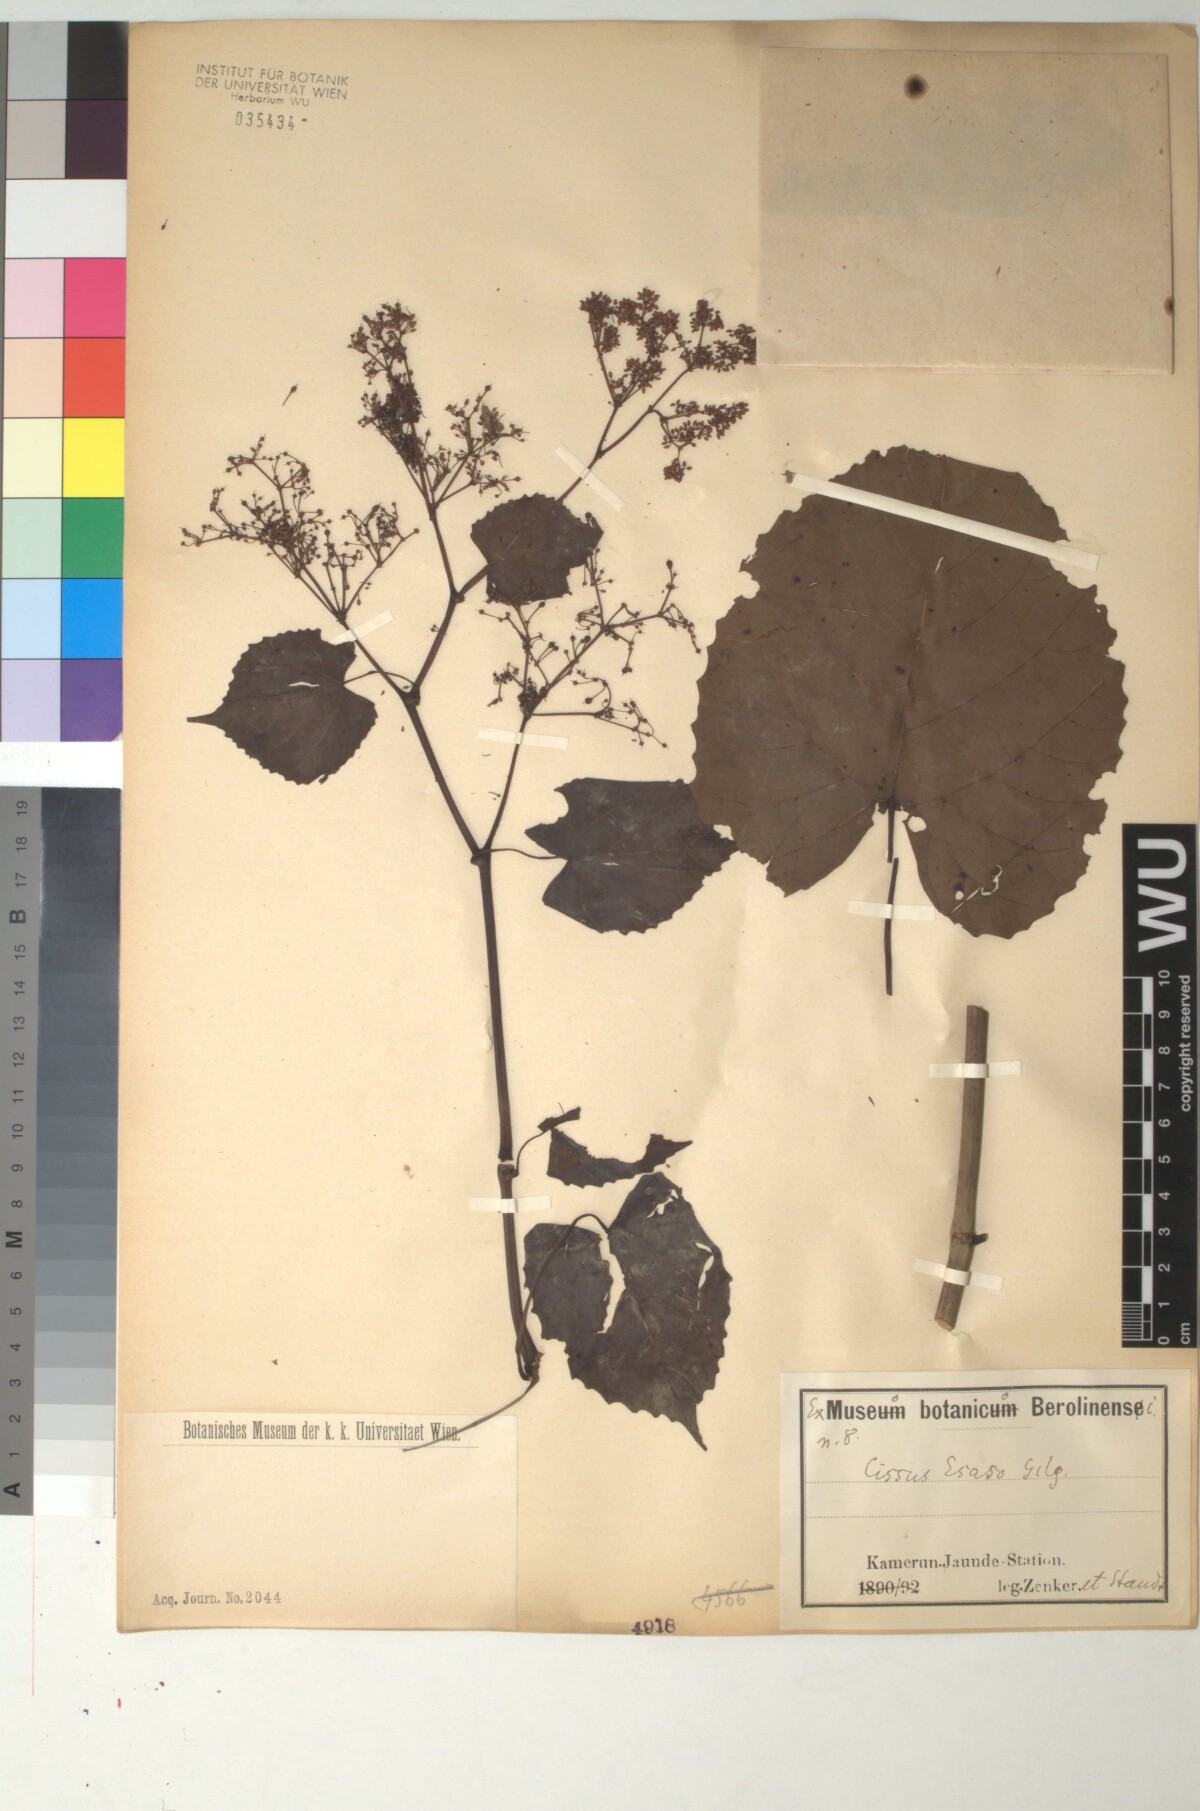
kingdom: Plantae
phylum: Tracheophyta
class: Magnoliopsida
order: Vitales
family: Vitaceae
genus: Cissus
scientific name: Cissus producta
